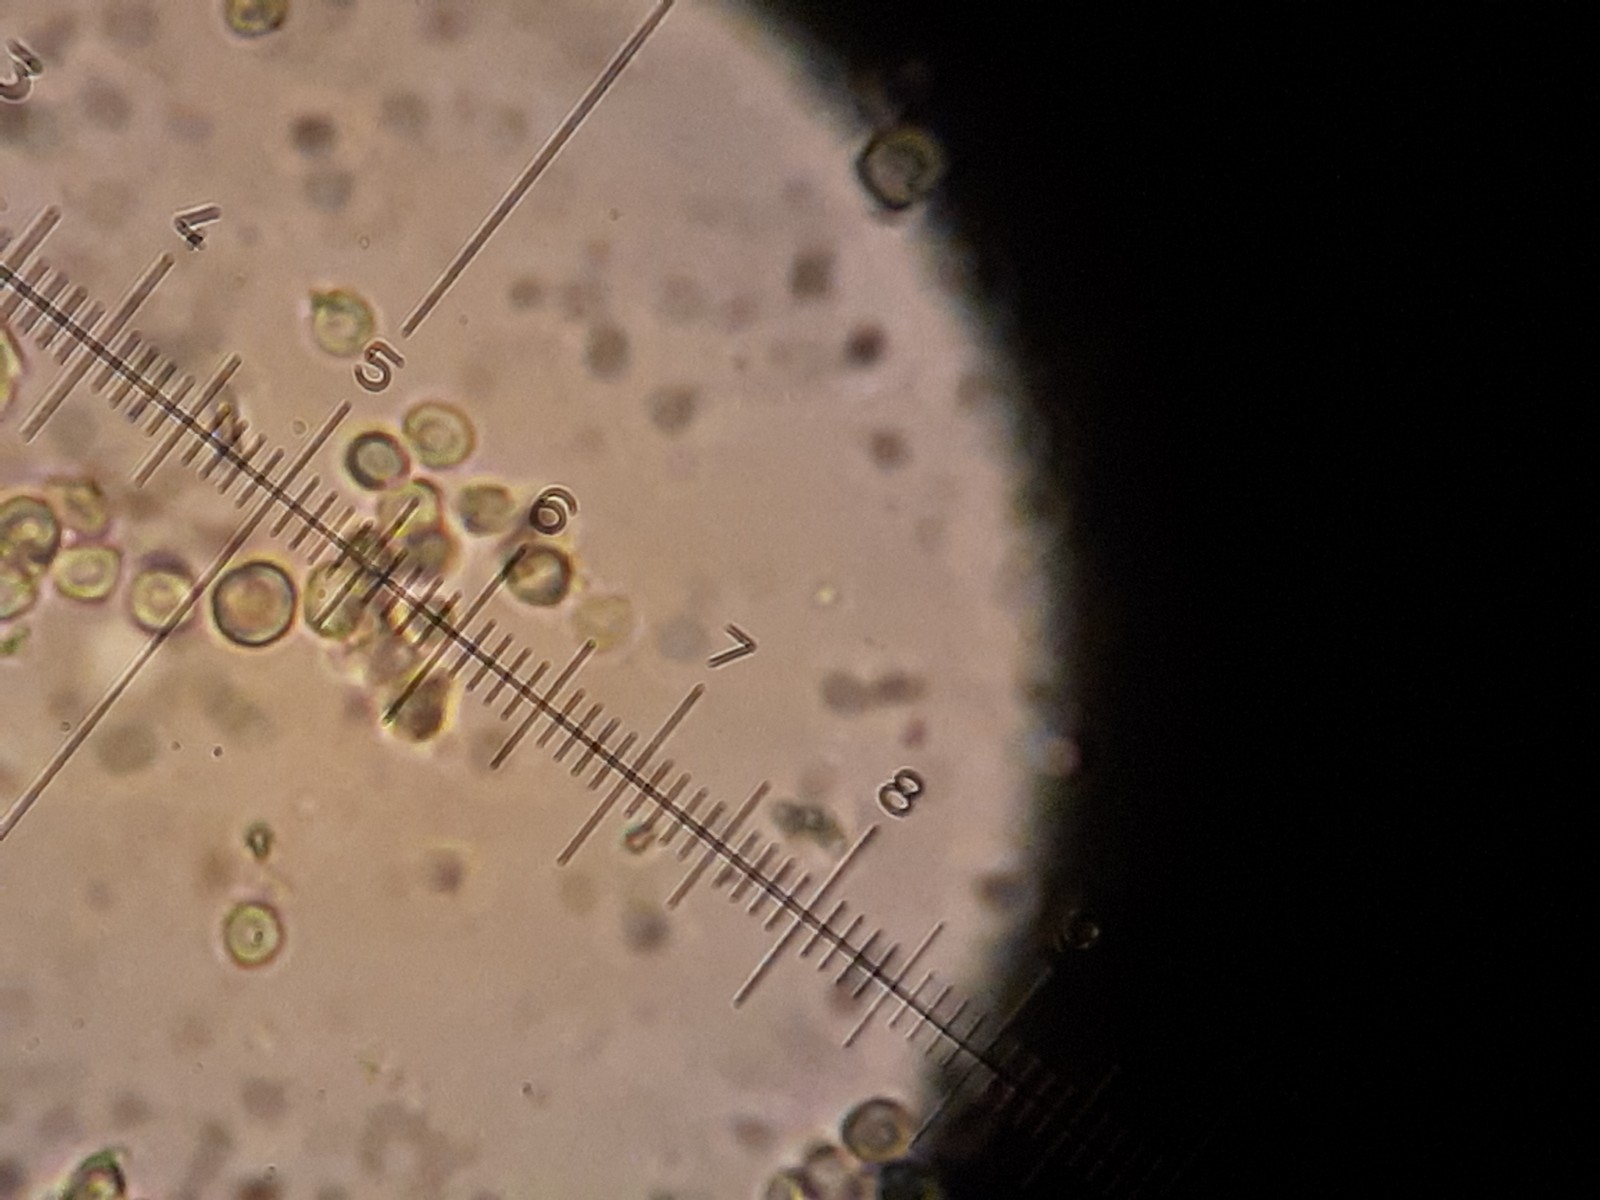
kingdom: Fungi
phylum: Ascomycota
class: Coniocybomycetes
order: Coniocybales
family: Coniocybaceae
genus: Chaenotheca
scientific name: Chaenotheca brachypoda
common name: gulgrøn knappenålslav
